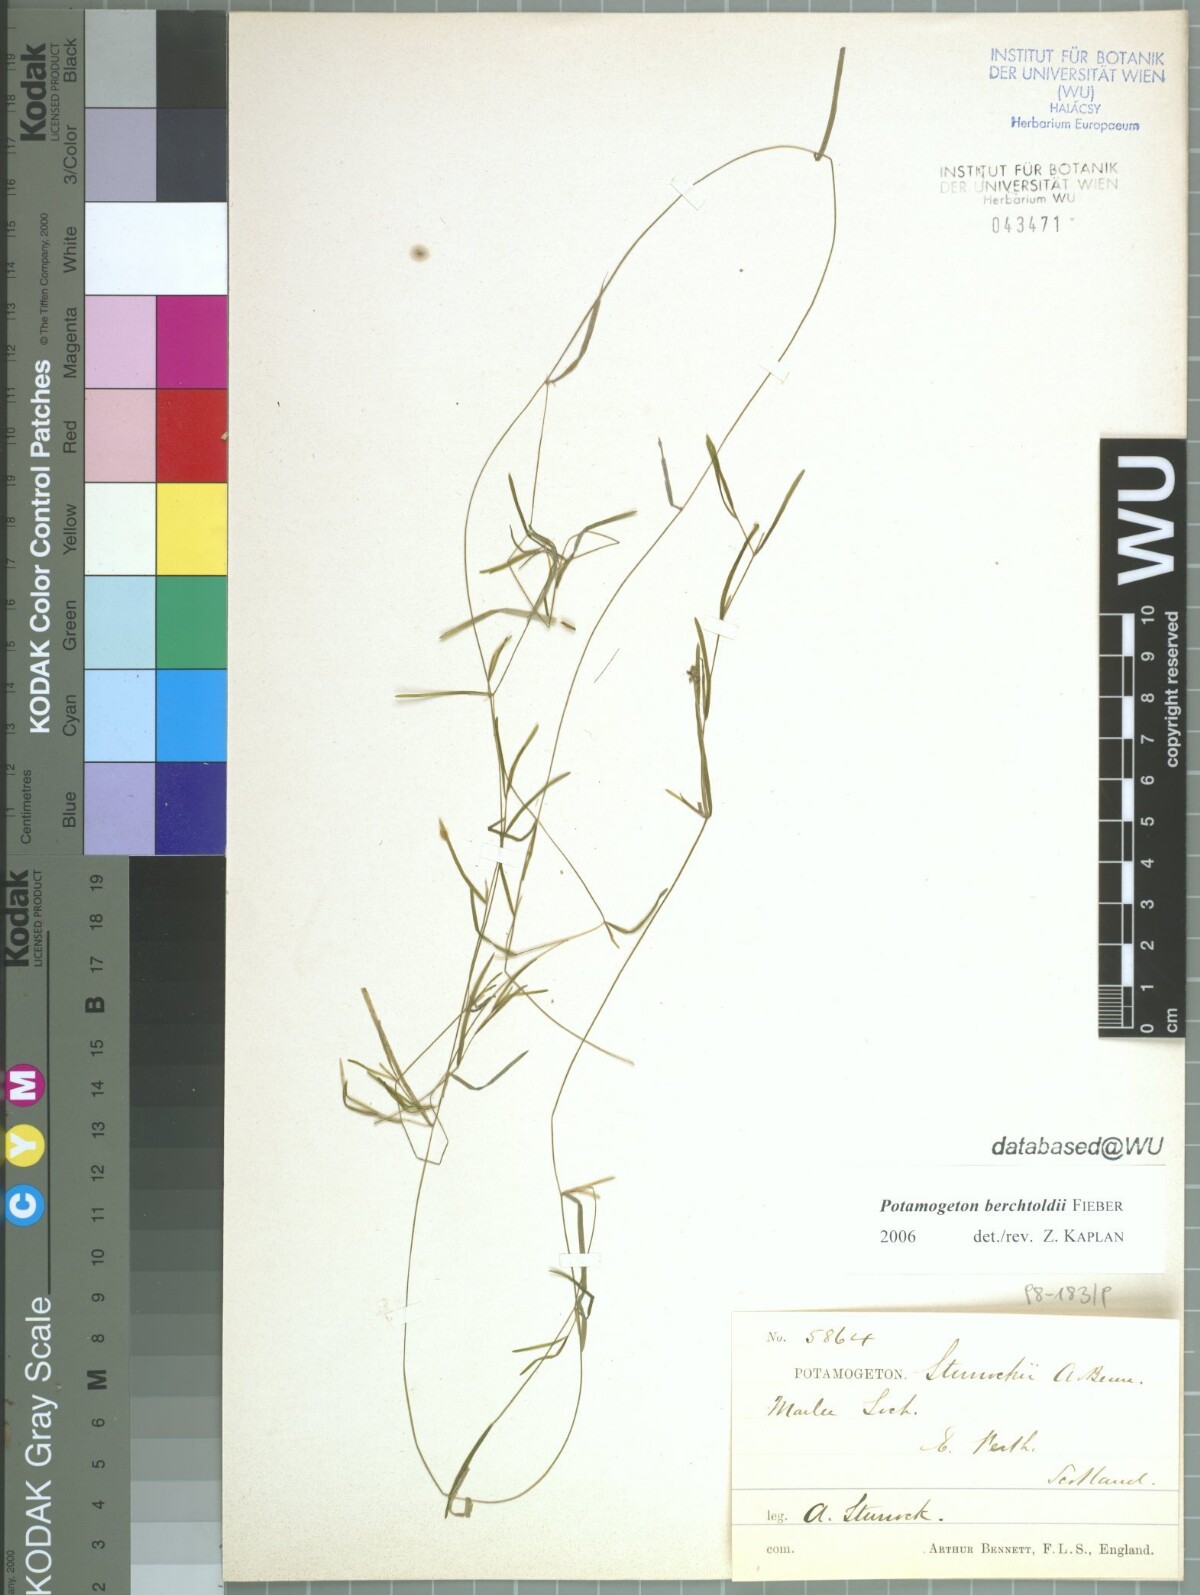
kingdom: Plantae
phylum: Tracheophyta
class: Liliopsida
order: Alismatales
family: Potamogetonaceae
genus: Potamogeton
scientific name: Potamogeton pusillus
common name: Lesser pondweed
